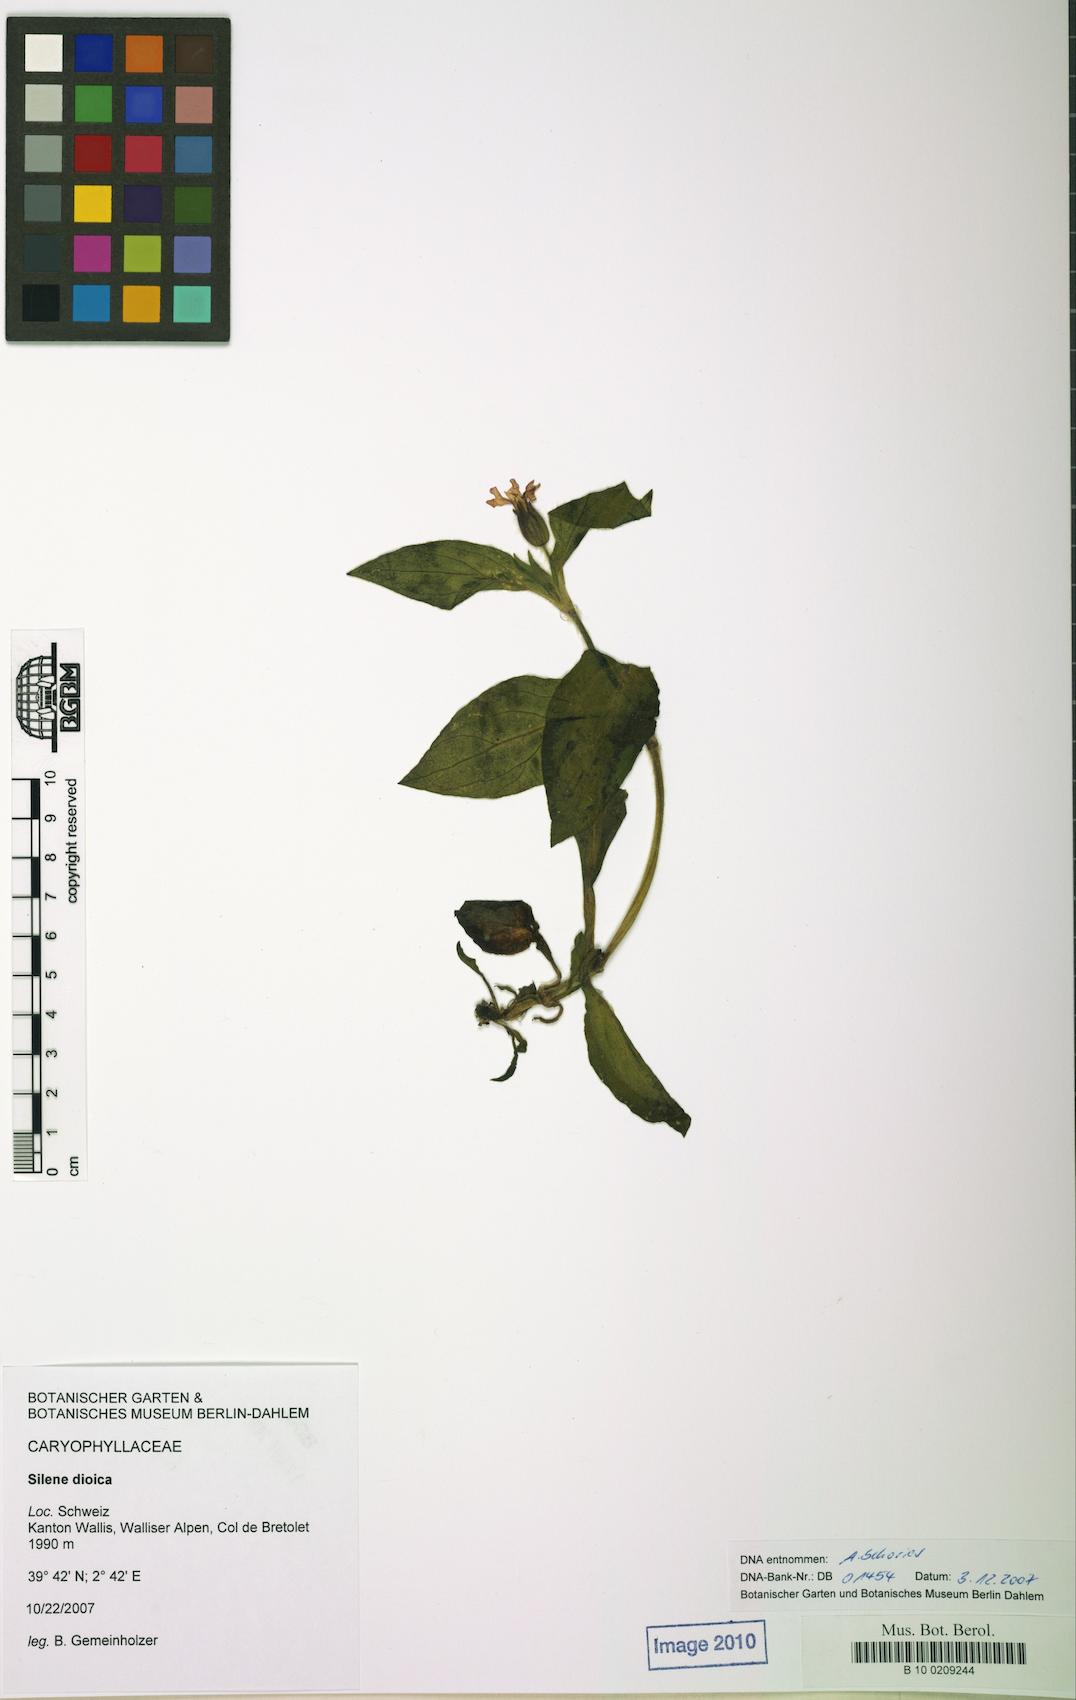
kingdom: Plantae
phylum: Tracheophyta
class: Magnoliopsida
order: Caryophyllales
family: Caryophyllaceae
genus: Silene
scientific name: Silene dioica
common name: Red campion
